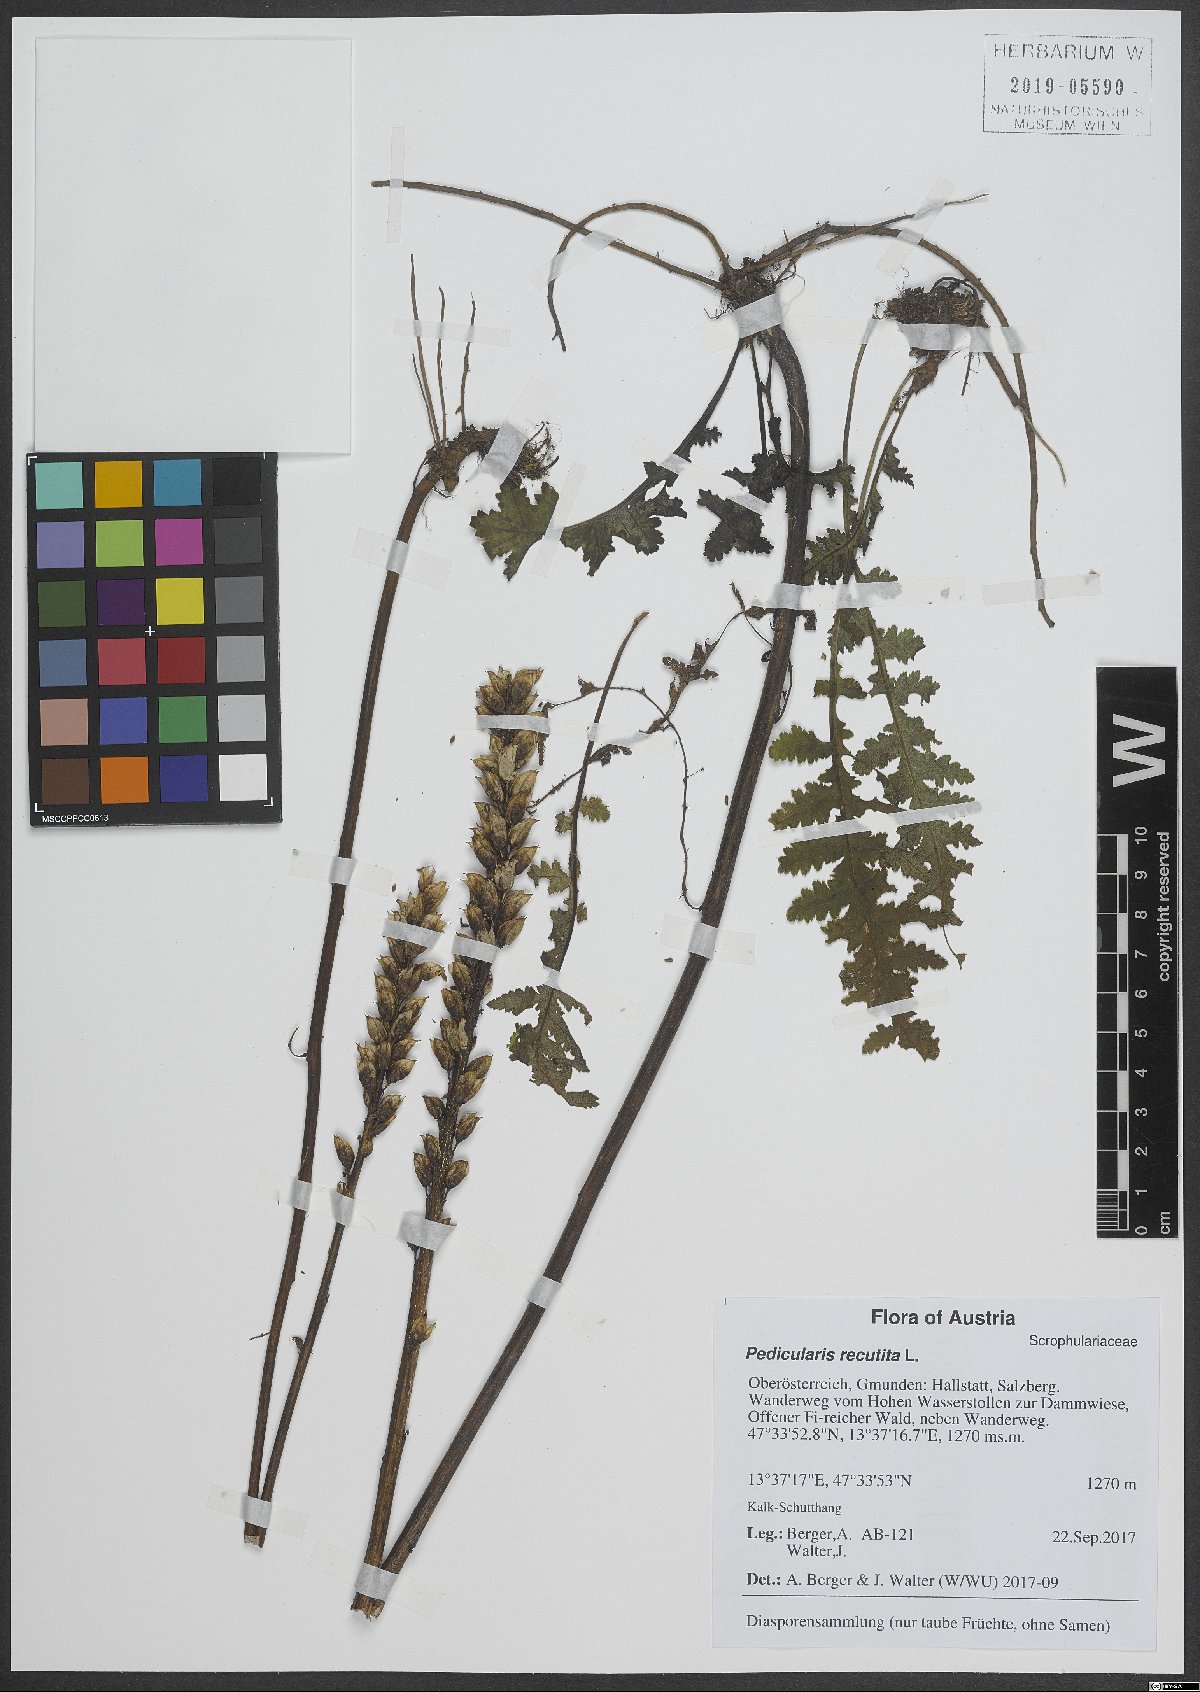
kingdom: Plantae
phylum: Tracheophyta
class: Magnoliopsida
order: Lamiales
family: Orobanchaceae
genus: Pedicularis
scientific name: Pedicularis recutita
